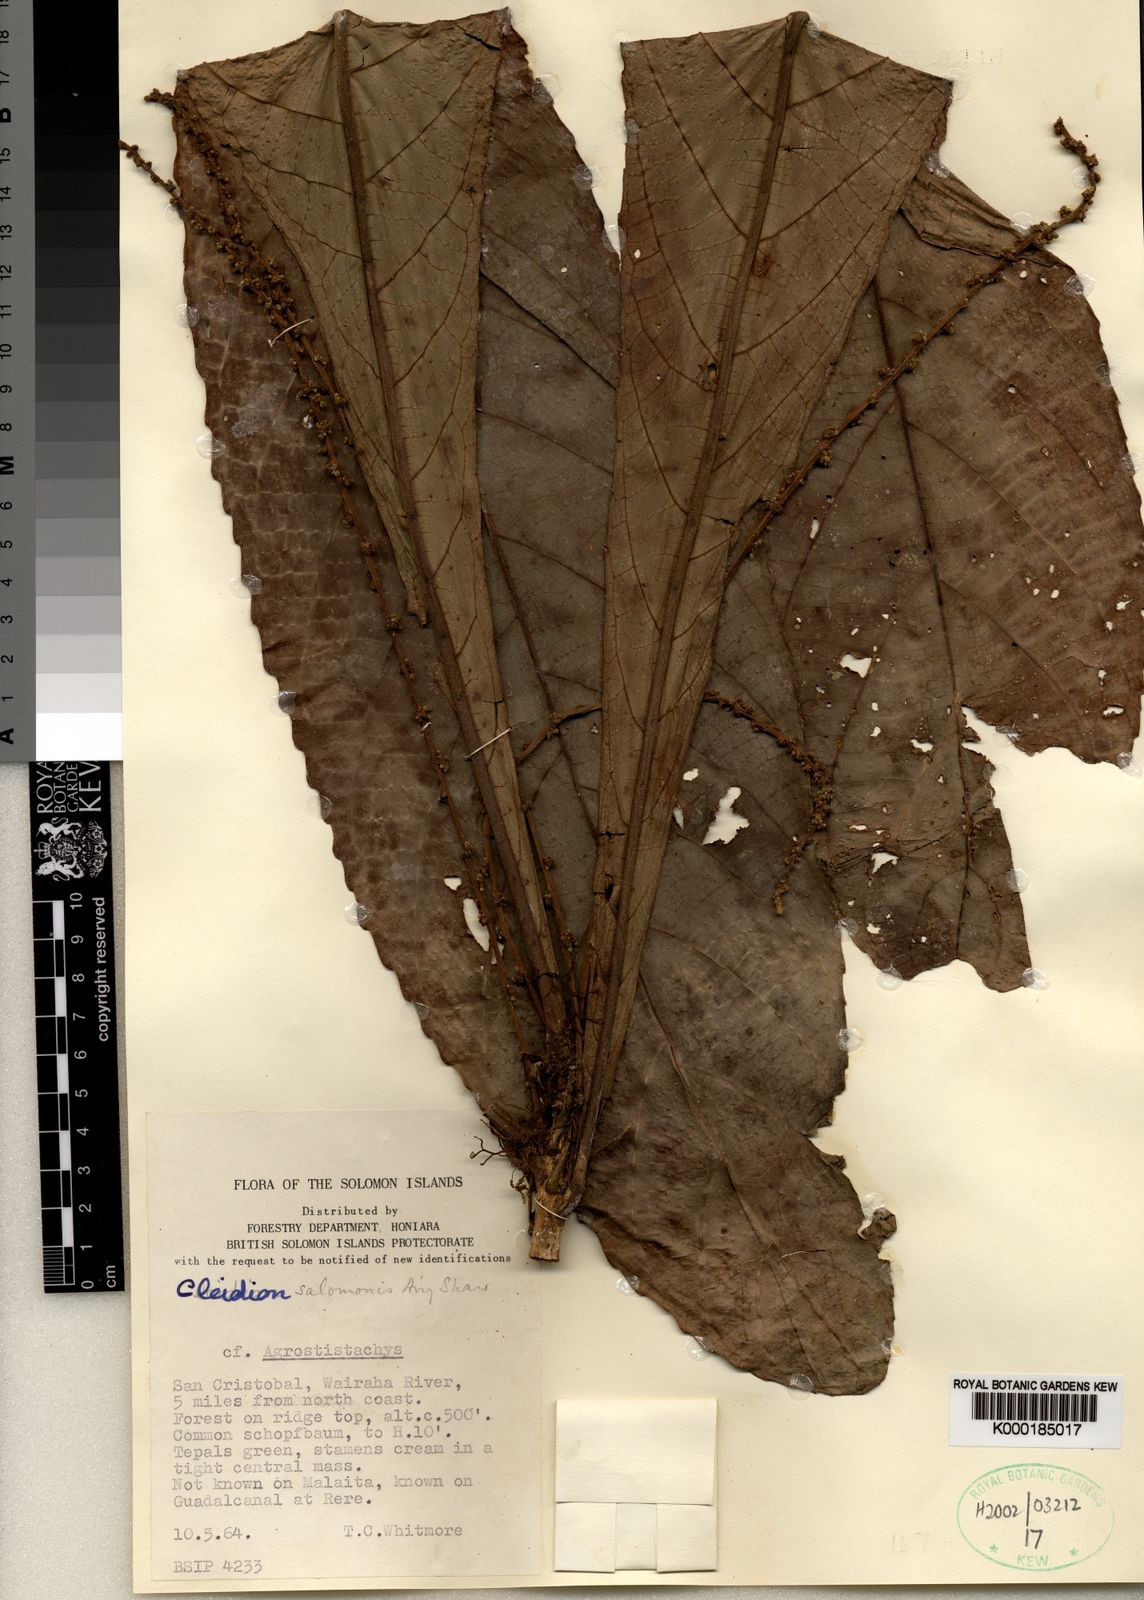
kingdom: Plantae
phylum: Tracheophyta
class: Magnoliopsida
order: Malpighiales
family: Euphorbiaceae
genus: Cleidion
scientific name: Cleidion papuanum
